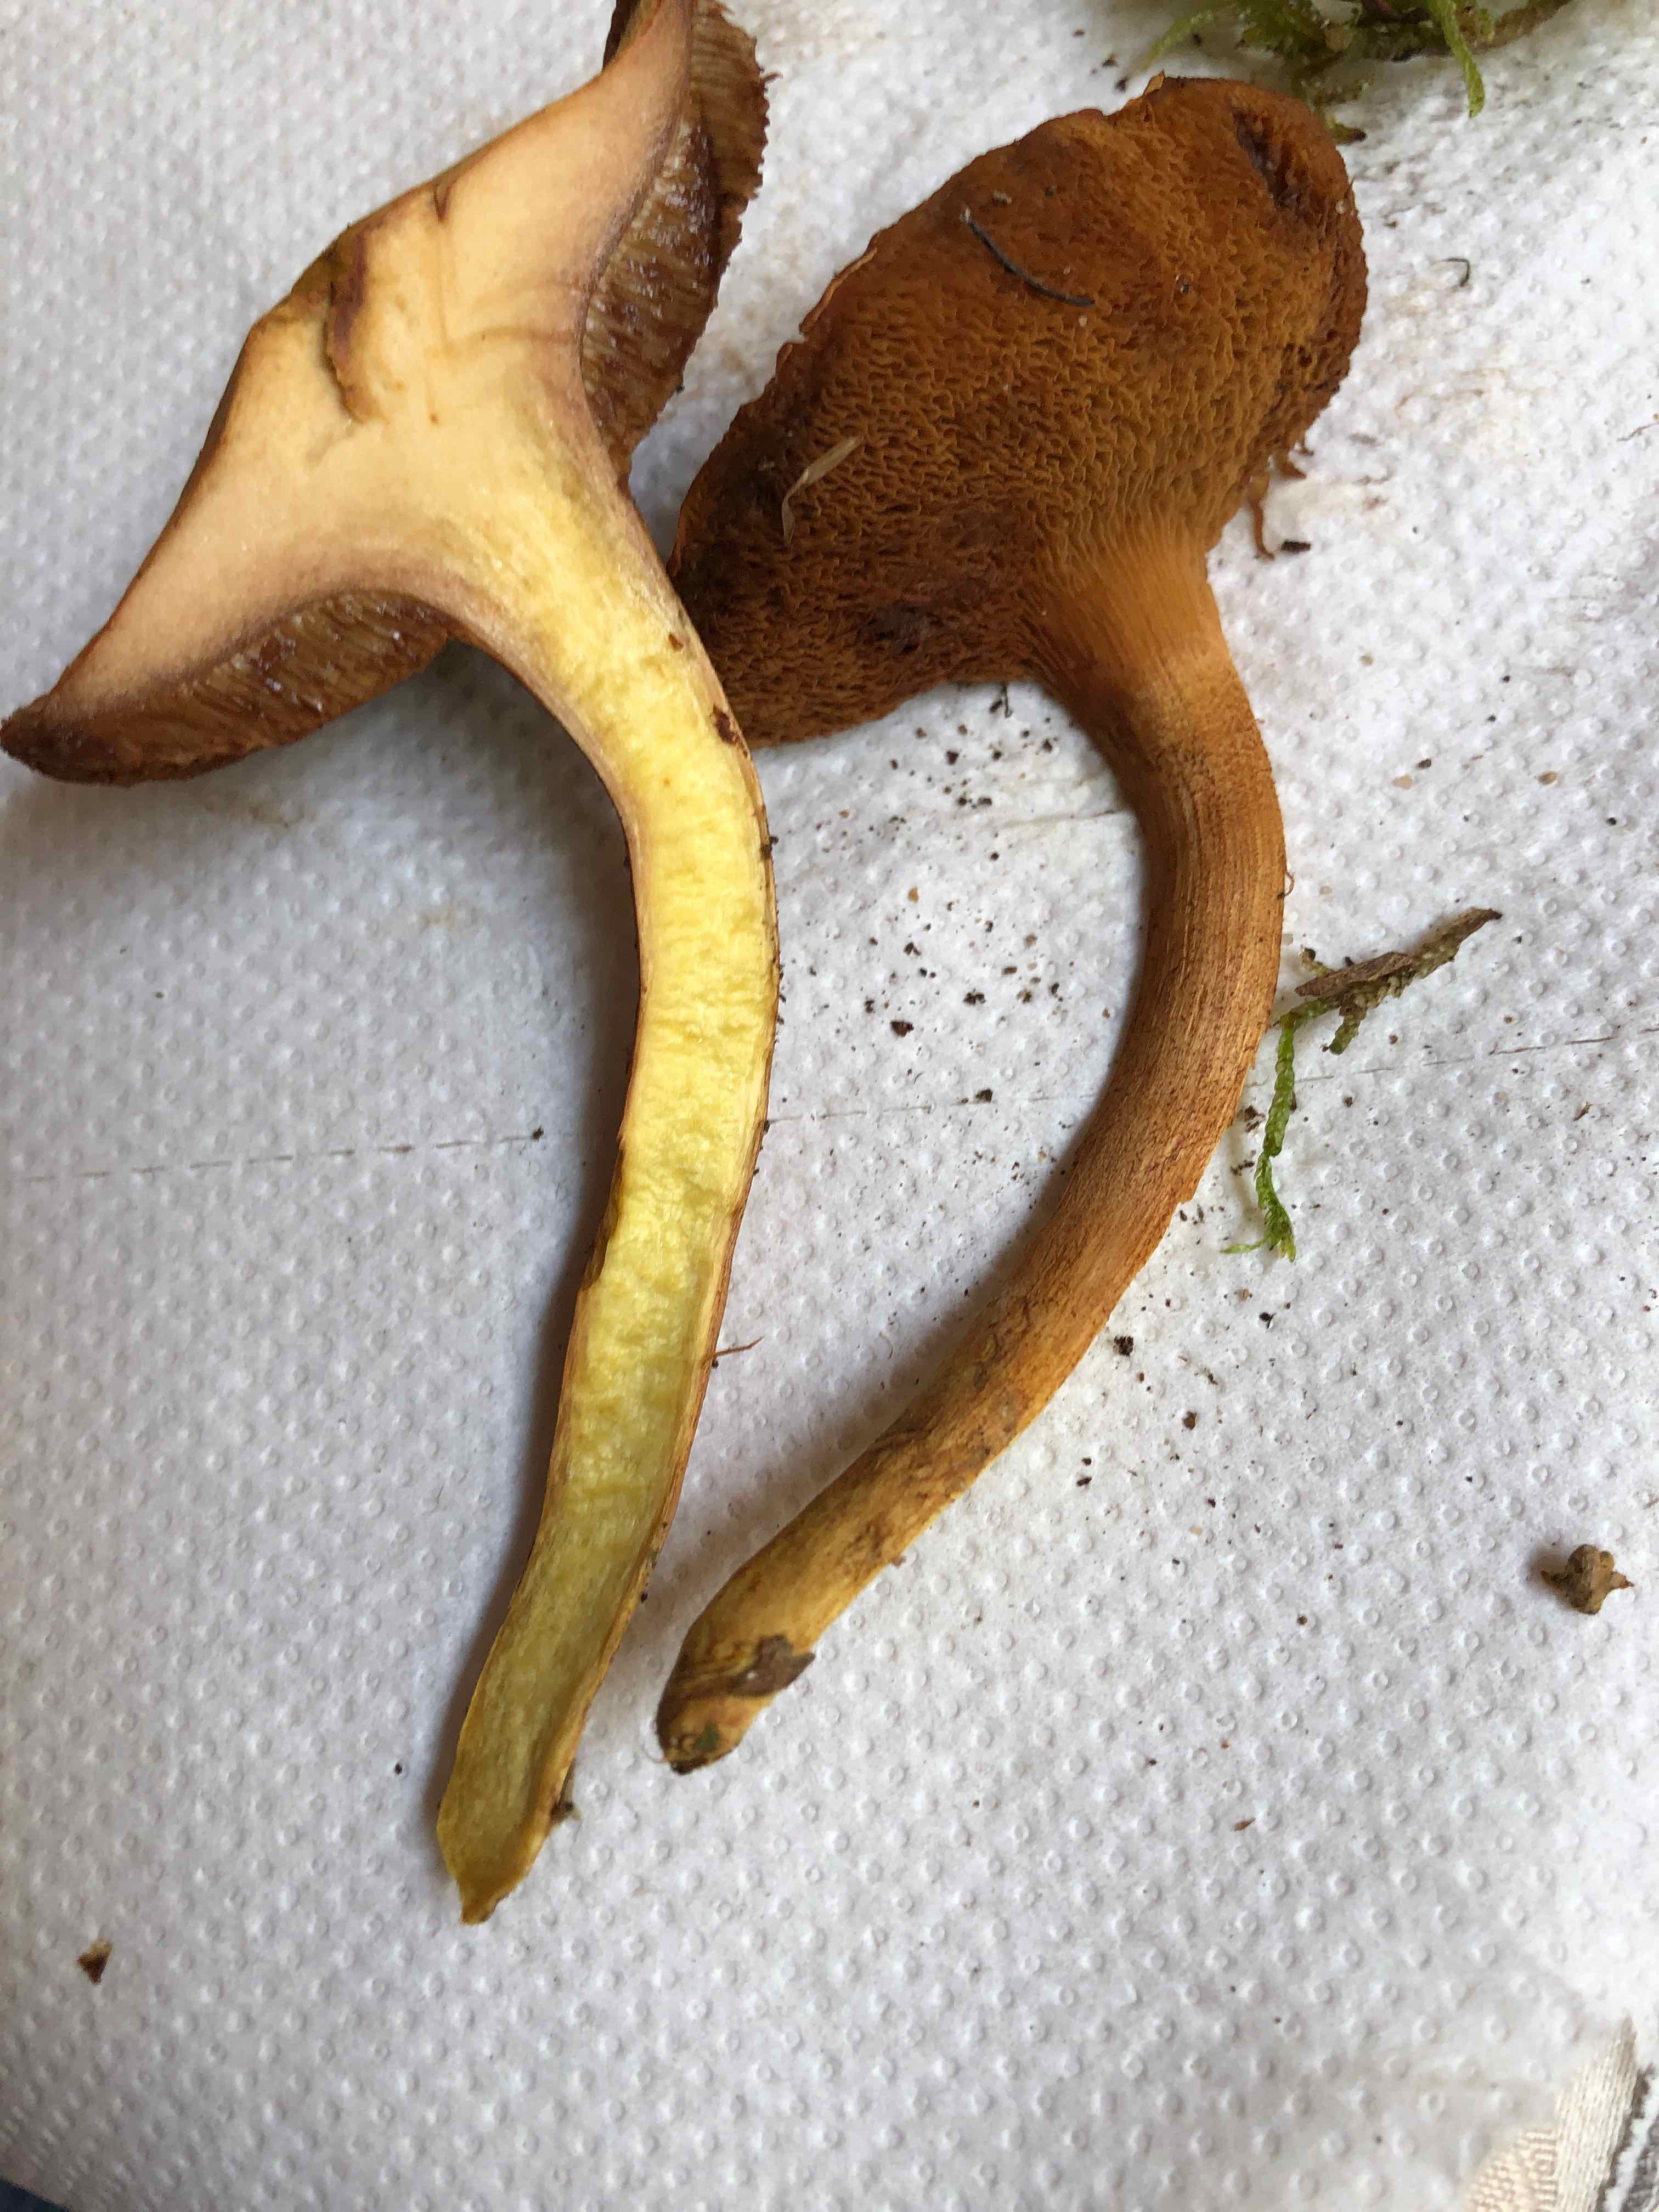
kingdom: Fungi
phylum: Basidiomycota
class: Agaricomycetes
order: Boletales
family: Boletaceae
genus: Chalciporus
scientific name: Chalciporus piperatus
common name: peberrørhat
